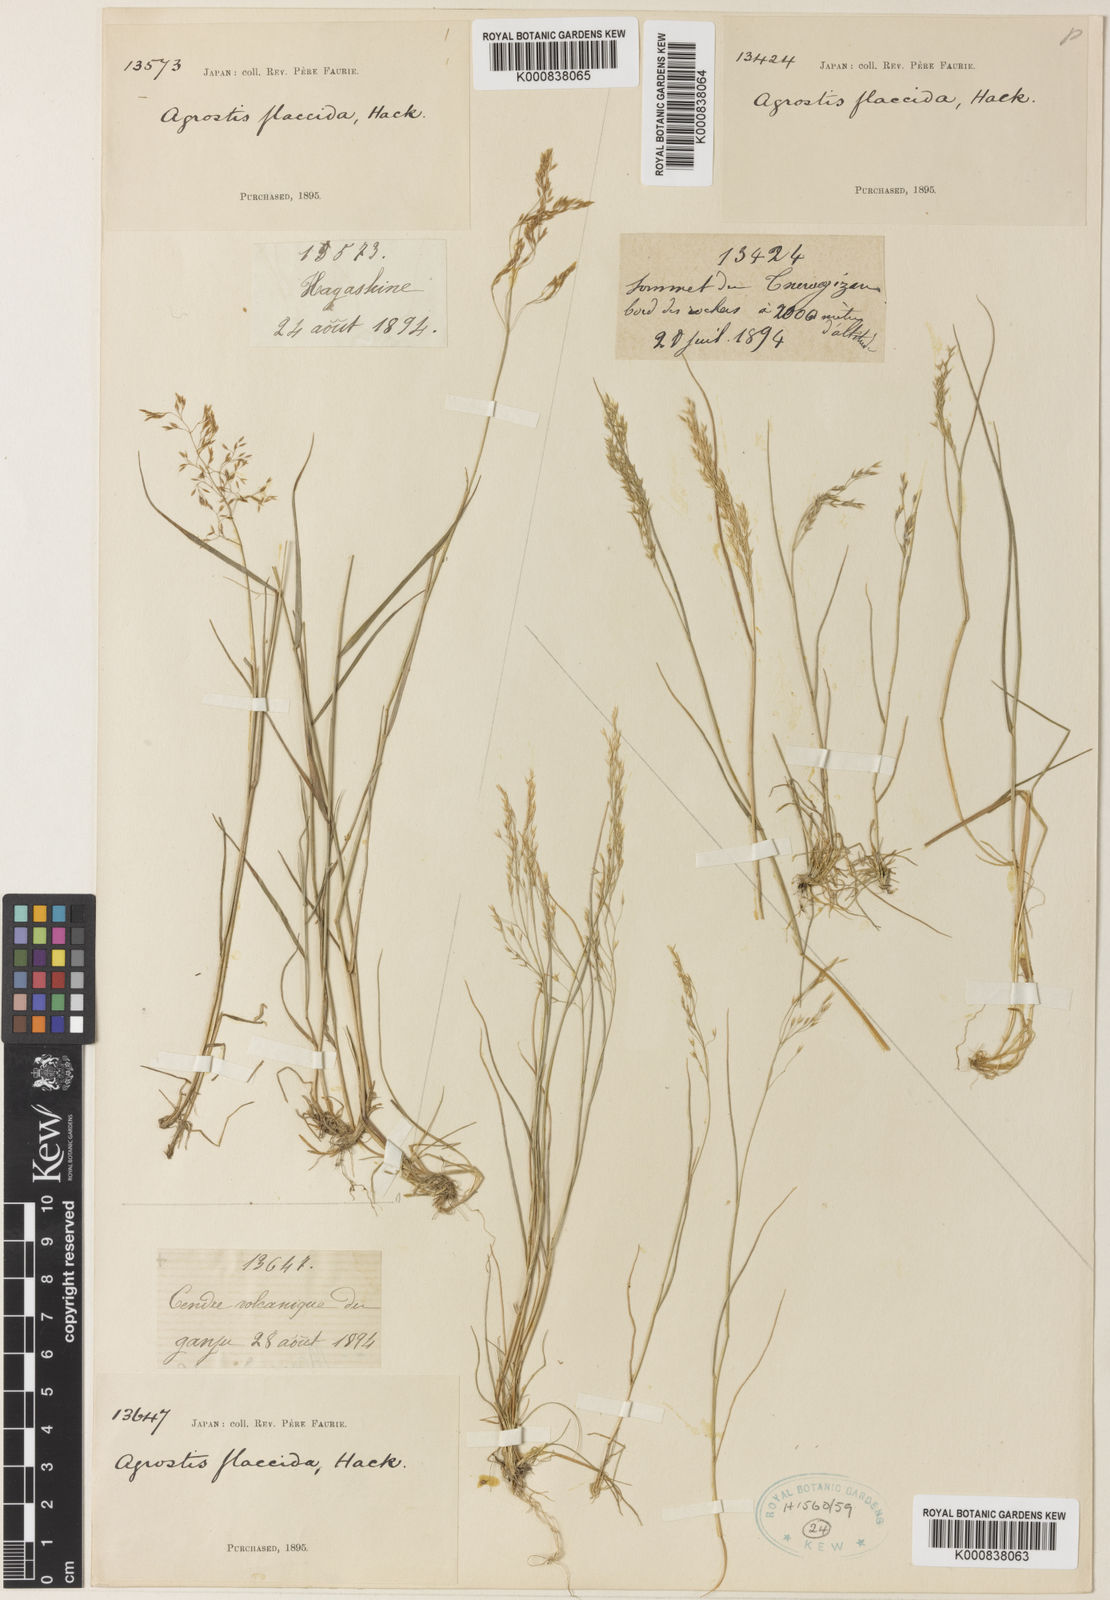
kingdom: Plantae
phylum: Tracheophyta
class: Liliopsida
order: Poales
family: Poaceae
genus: Agrostis
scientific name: Agrostis flaccida
